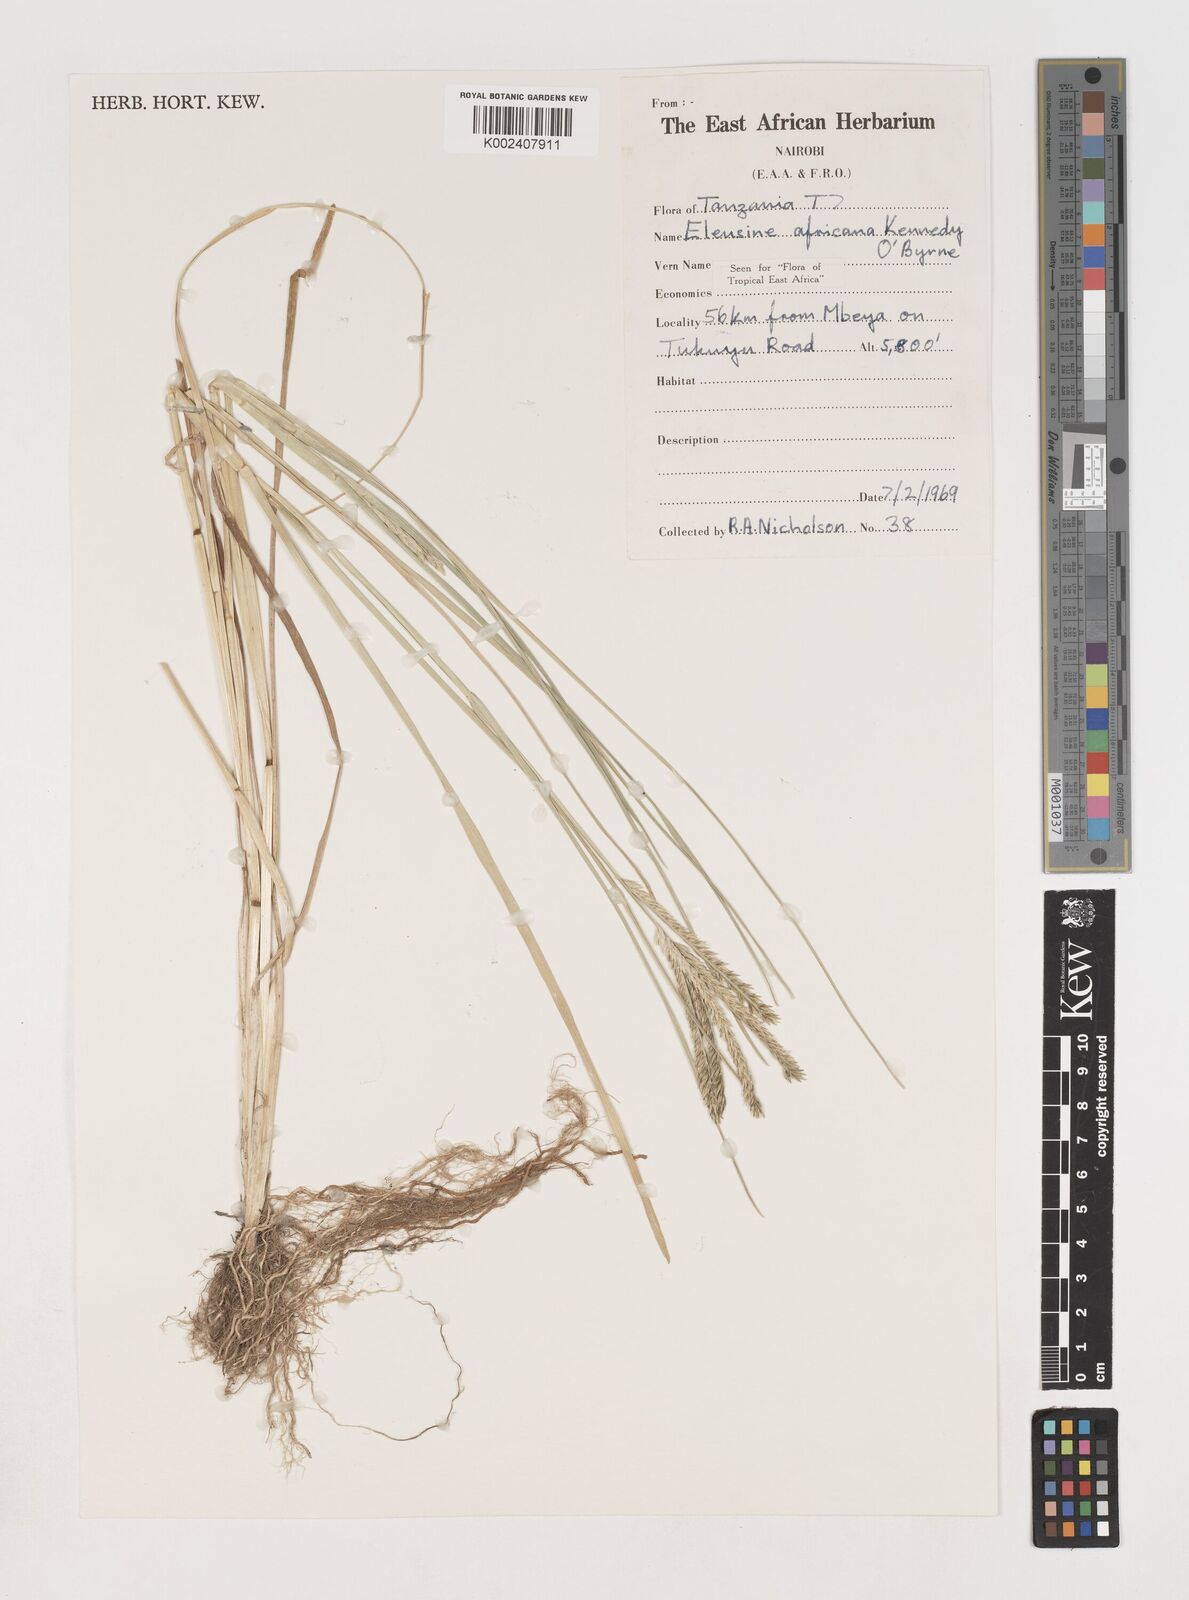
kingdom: Plantae
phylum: Tracheophyta
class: Liliopsida
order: Poales
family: Poaceae
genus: Eleusine
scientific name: Eleusine africana
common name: Wild african finger millet
